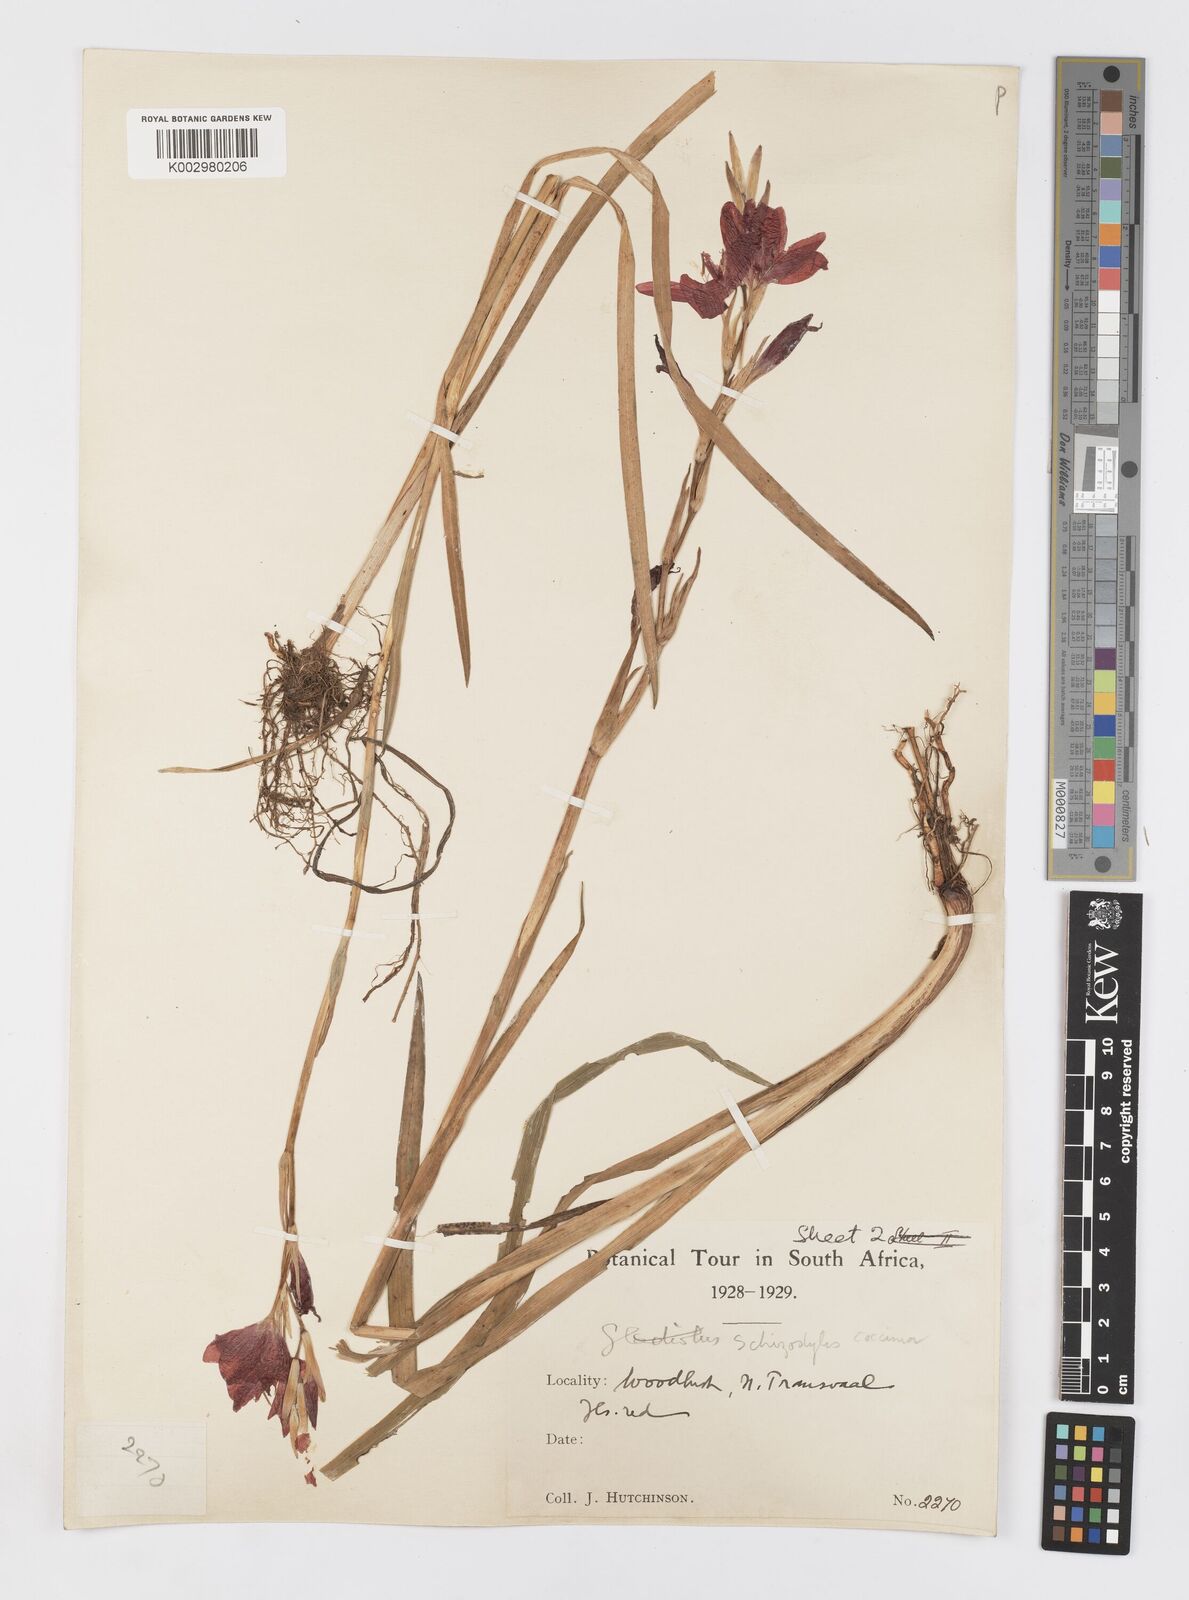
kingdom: Plantae
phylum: Tracheophyta
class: Liliopsida
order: Asparagales
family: Iridaceae
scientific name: Iridaceae
